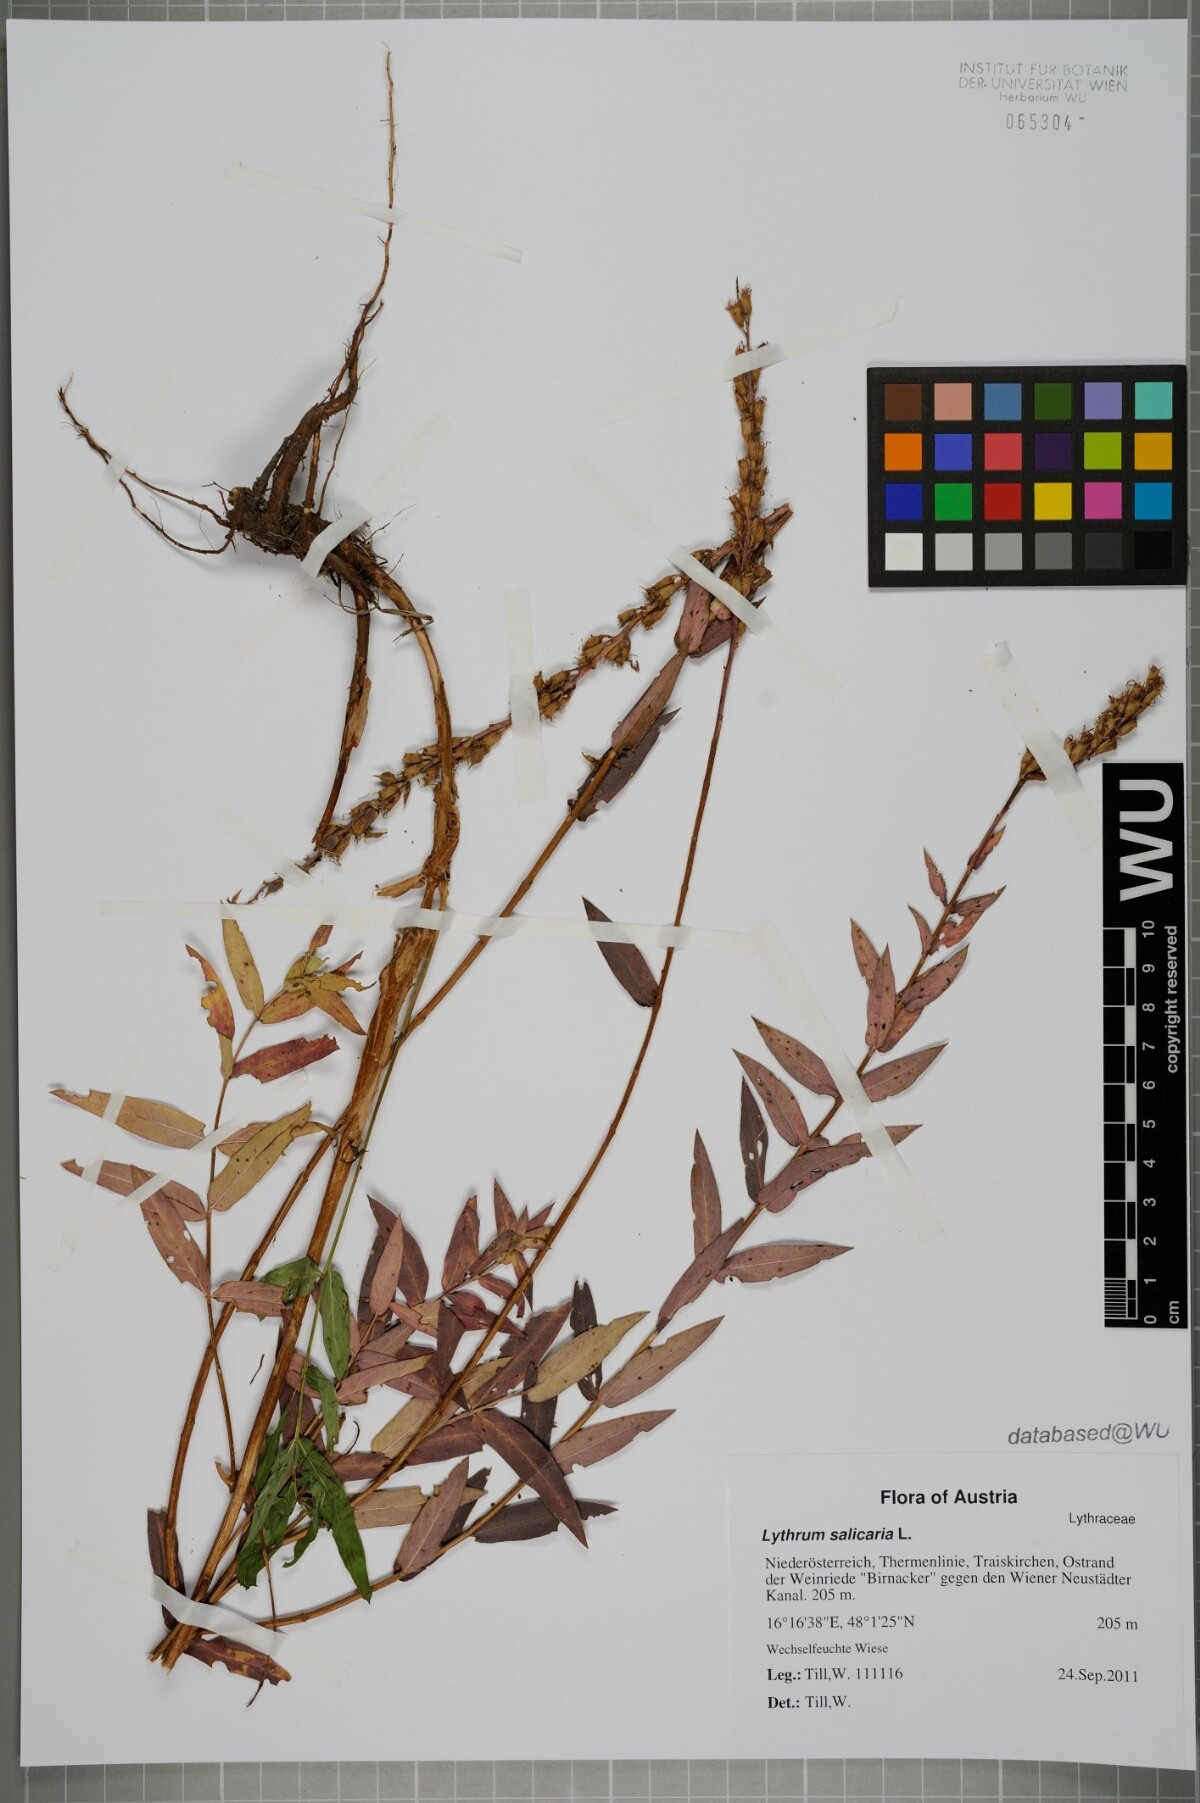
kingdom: Plantae
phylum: Tracheophyta
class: Magnoliopsida
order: Myrtales
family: Lythraceae
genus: Lythrum
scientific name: Lythrum salicaria
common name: Purple loosestrife
